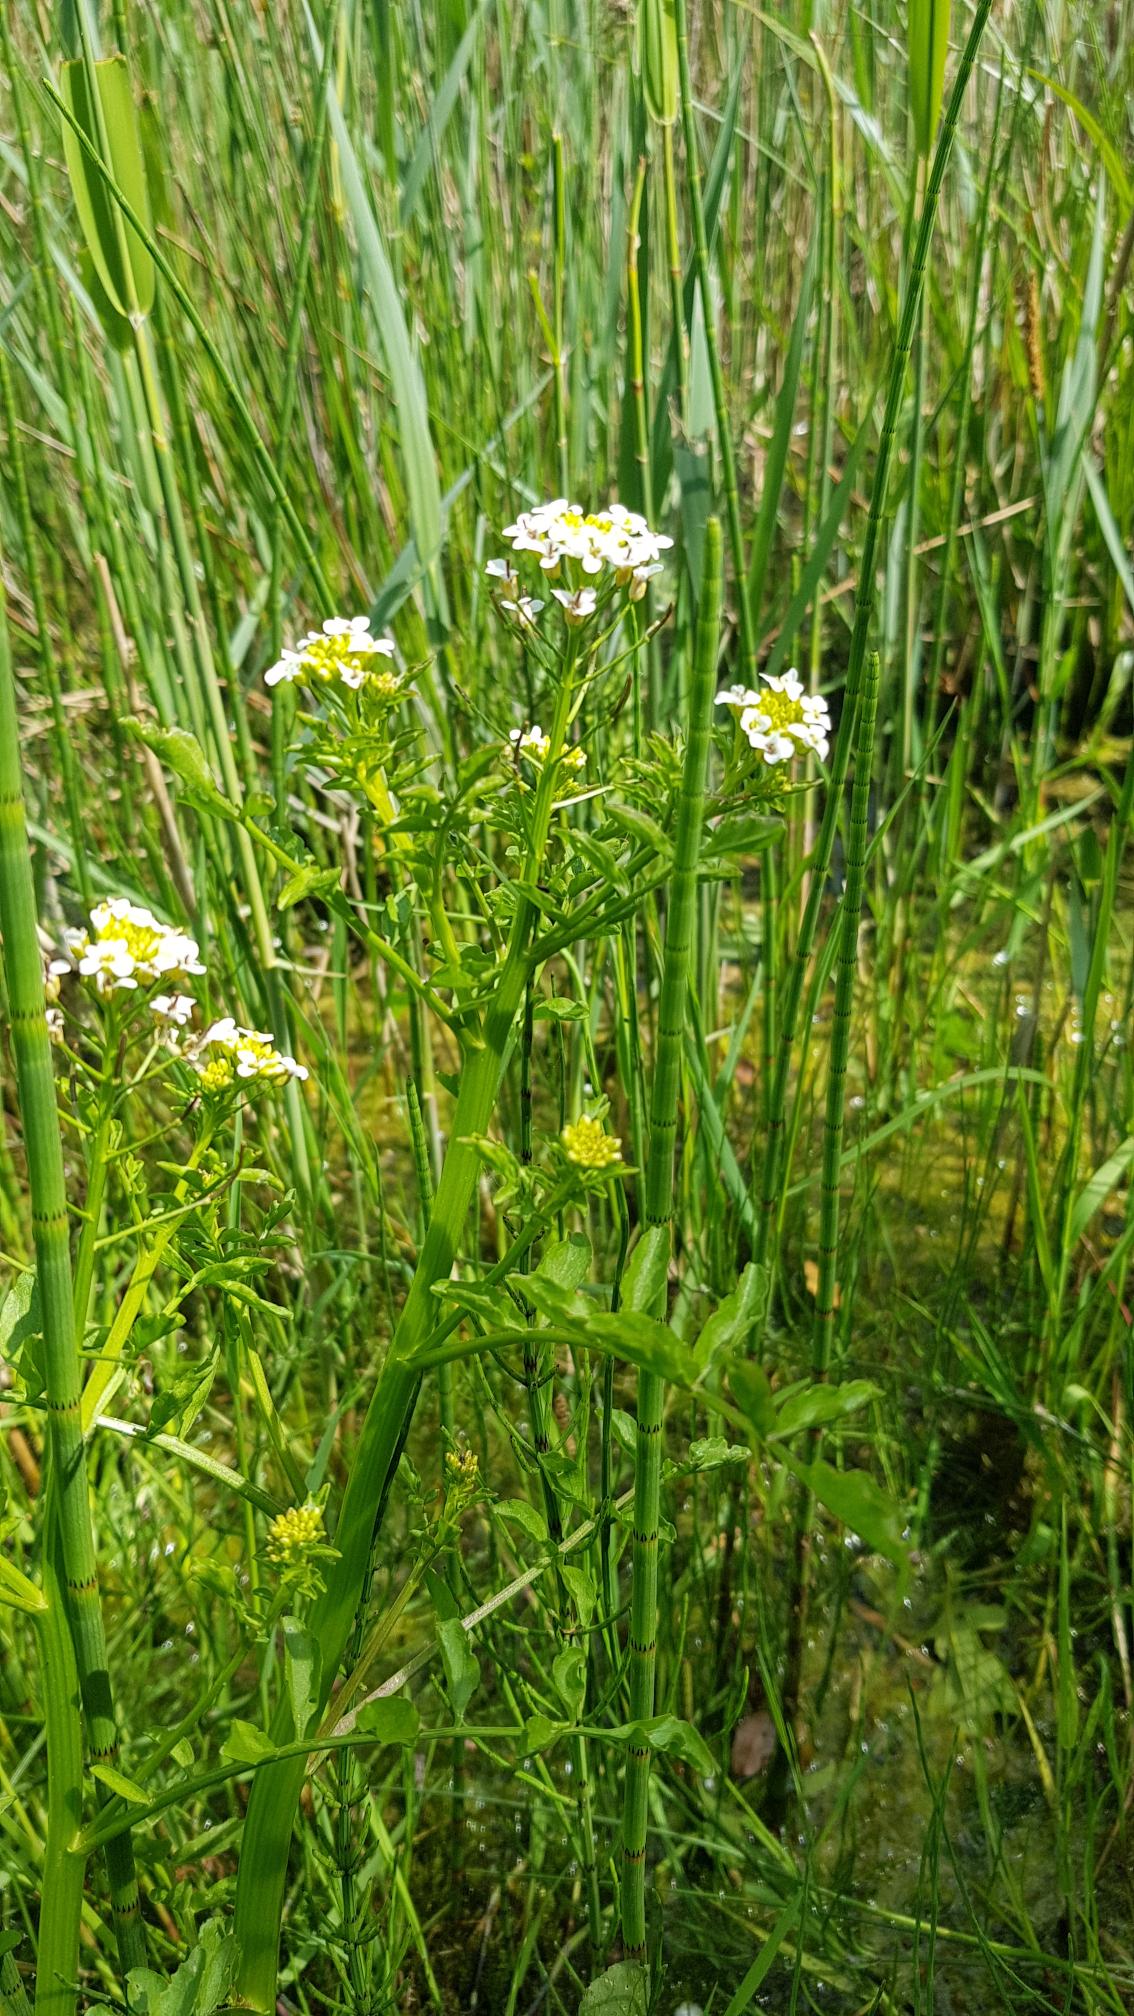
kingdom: Plantae
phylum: Tracheophyta
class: Magnoliopsida
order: Brassicales
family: Brassicaceae
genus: Nasturtium
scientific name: Nasturtium
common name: Brøndkarseslægten
